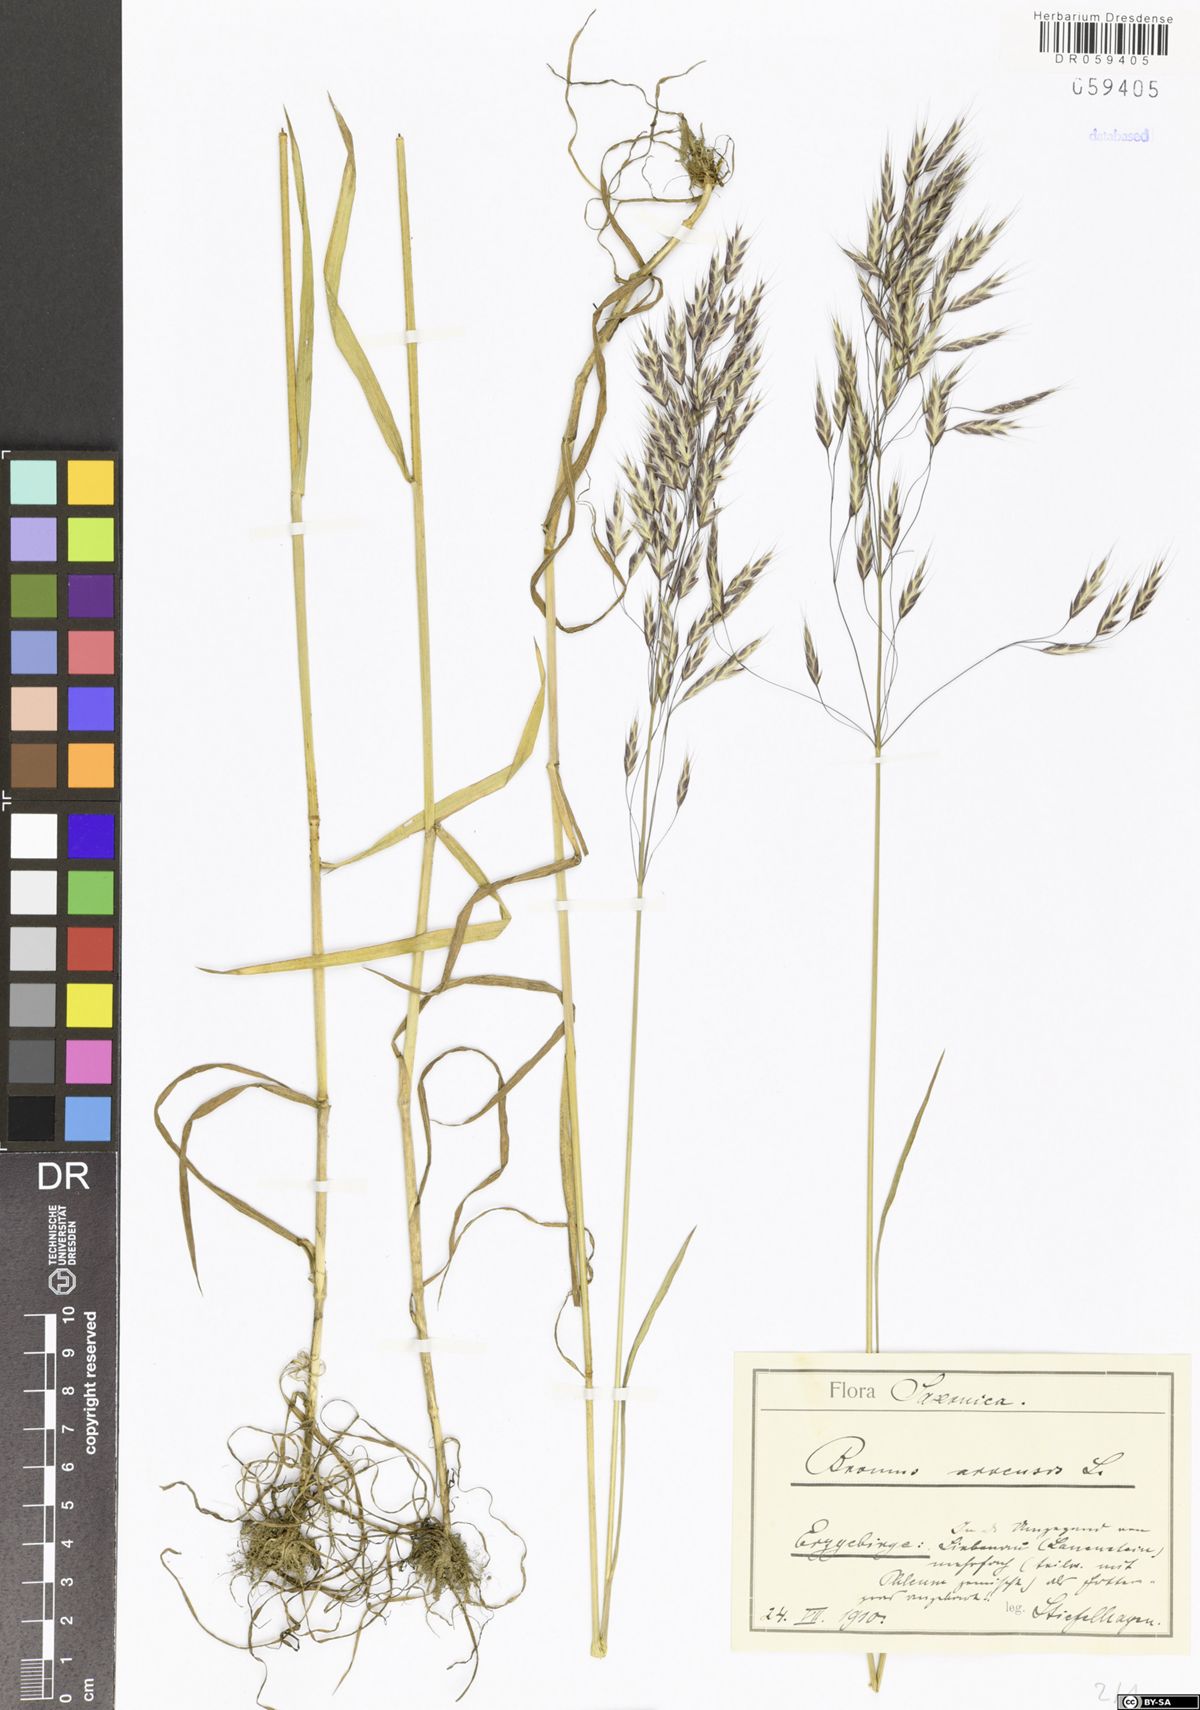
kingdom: Plantae
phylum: Tracheophyta
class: Liliopsida
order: Poales
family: Poaceae
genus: Bromus
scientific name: Bromus arvensis
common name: Field brome
